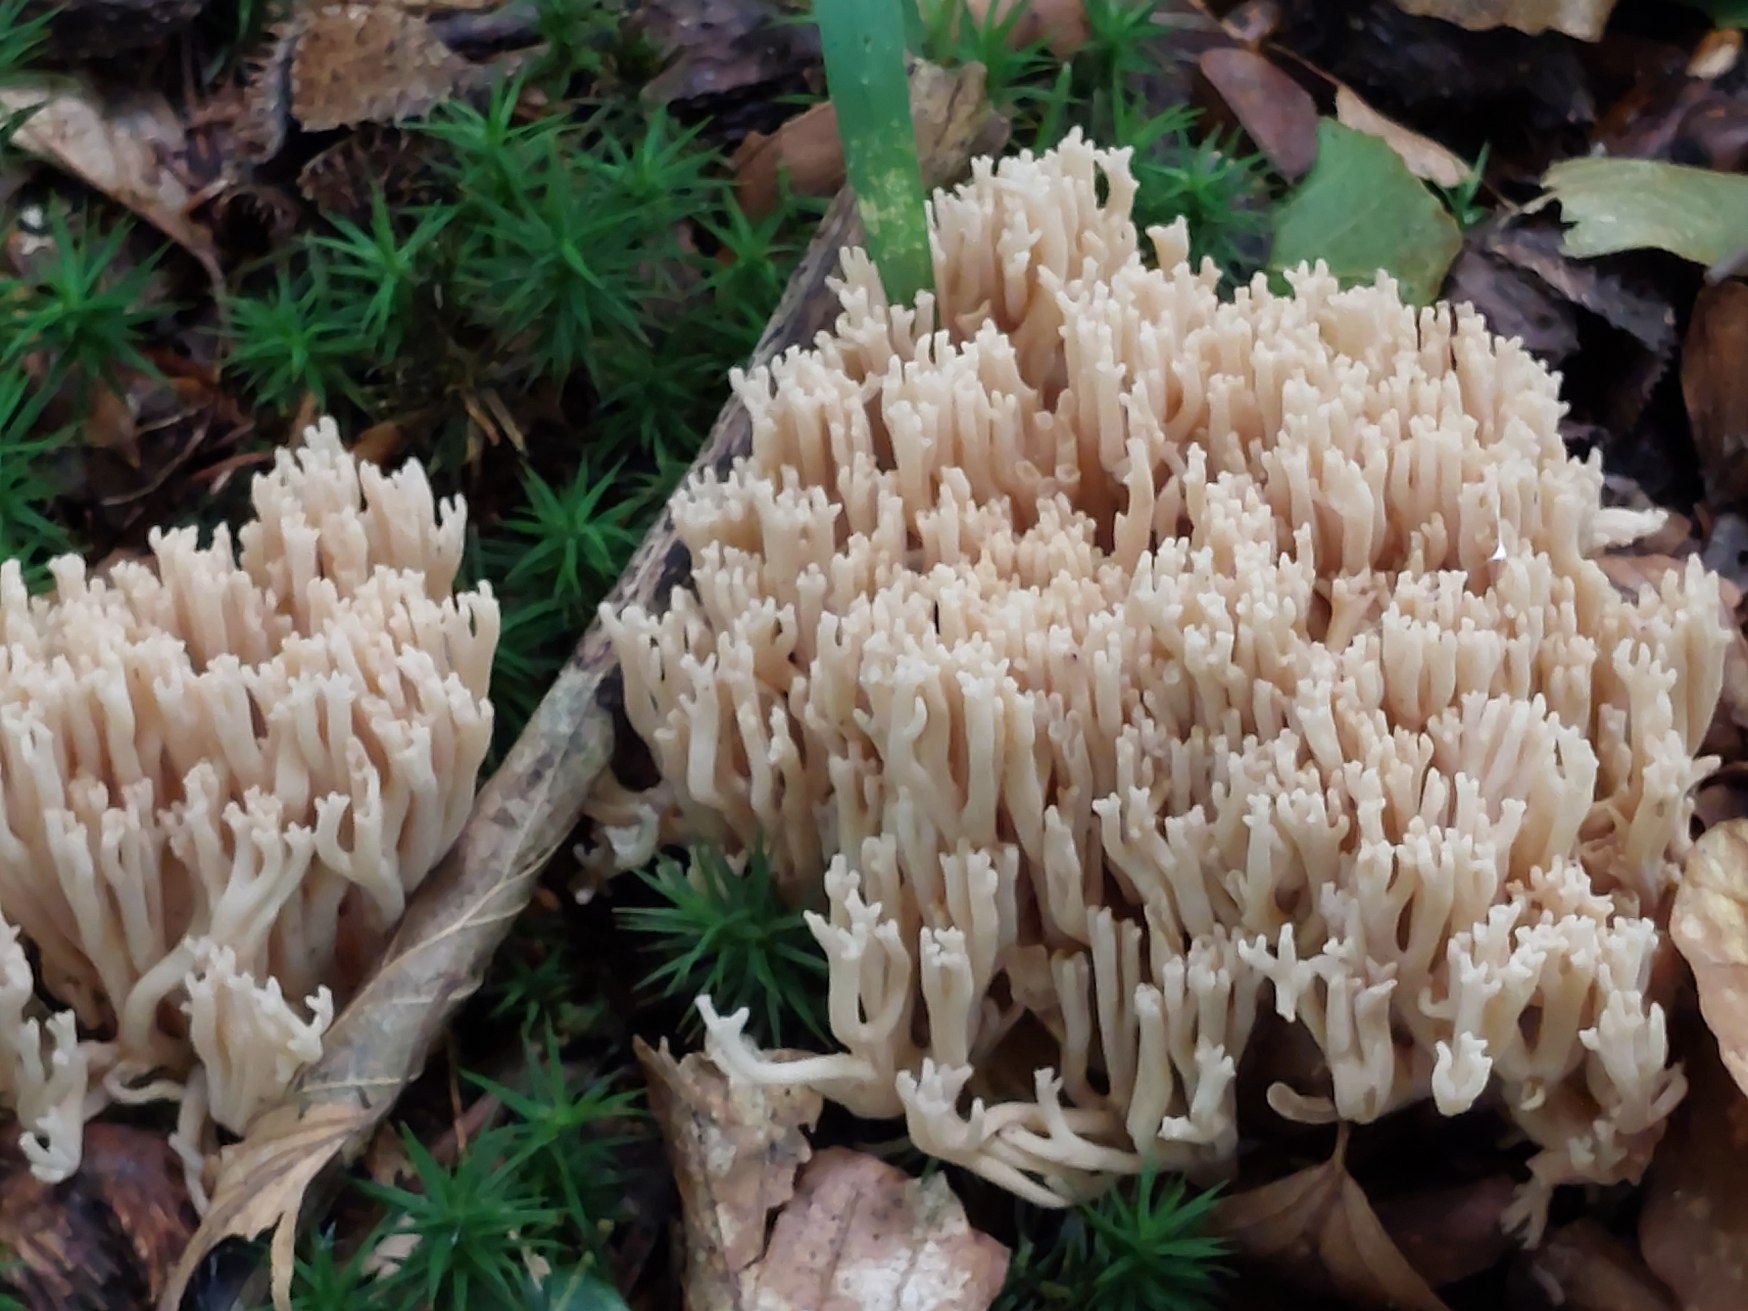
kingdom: Fungi
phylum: Basidiomycota
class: Agaricomycetes
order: Gomphales
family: Gomphaceae
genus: Ramaria
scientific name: Ramaria pallida
